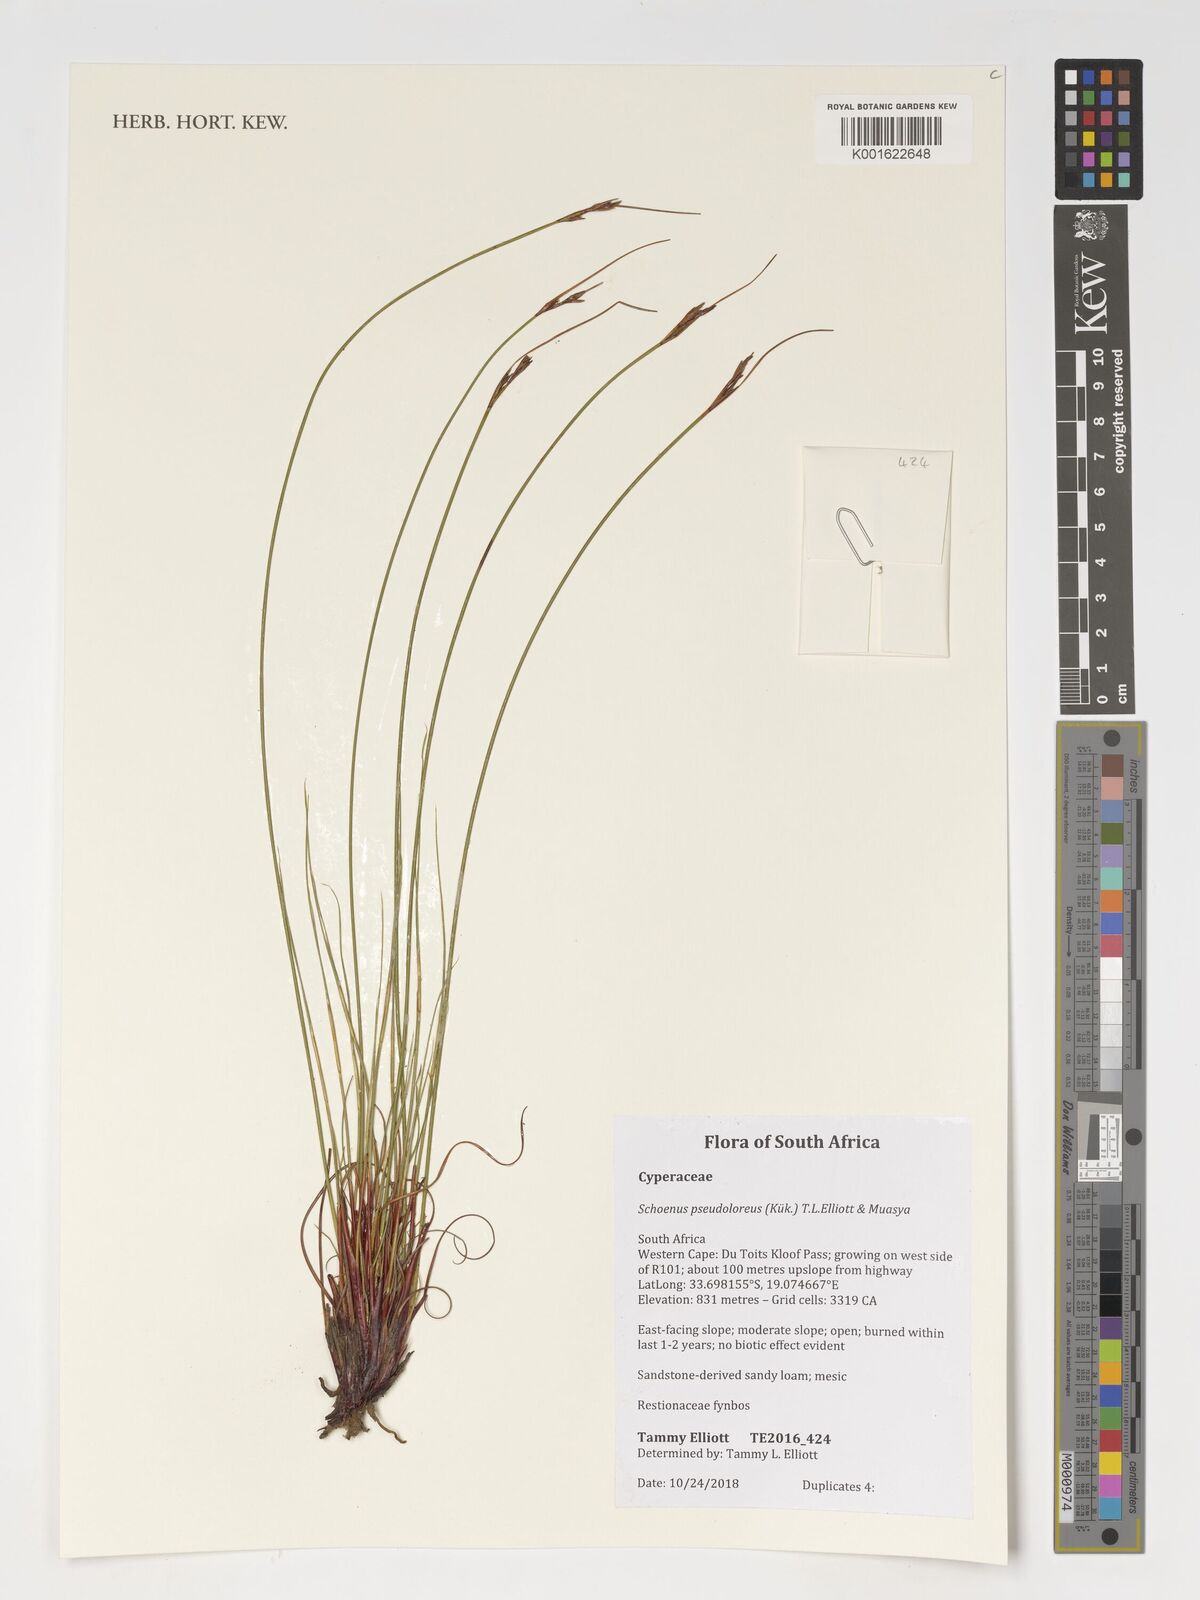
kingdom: Plantae
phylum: Tracheophyta
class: Liliopsida
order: Poales
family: Cyperaceae
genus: Schoenus
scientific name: Schoenus pseudoloreus
